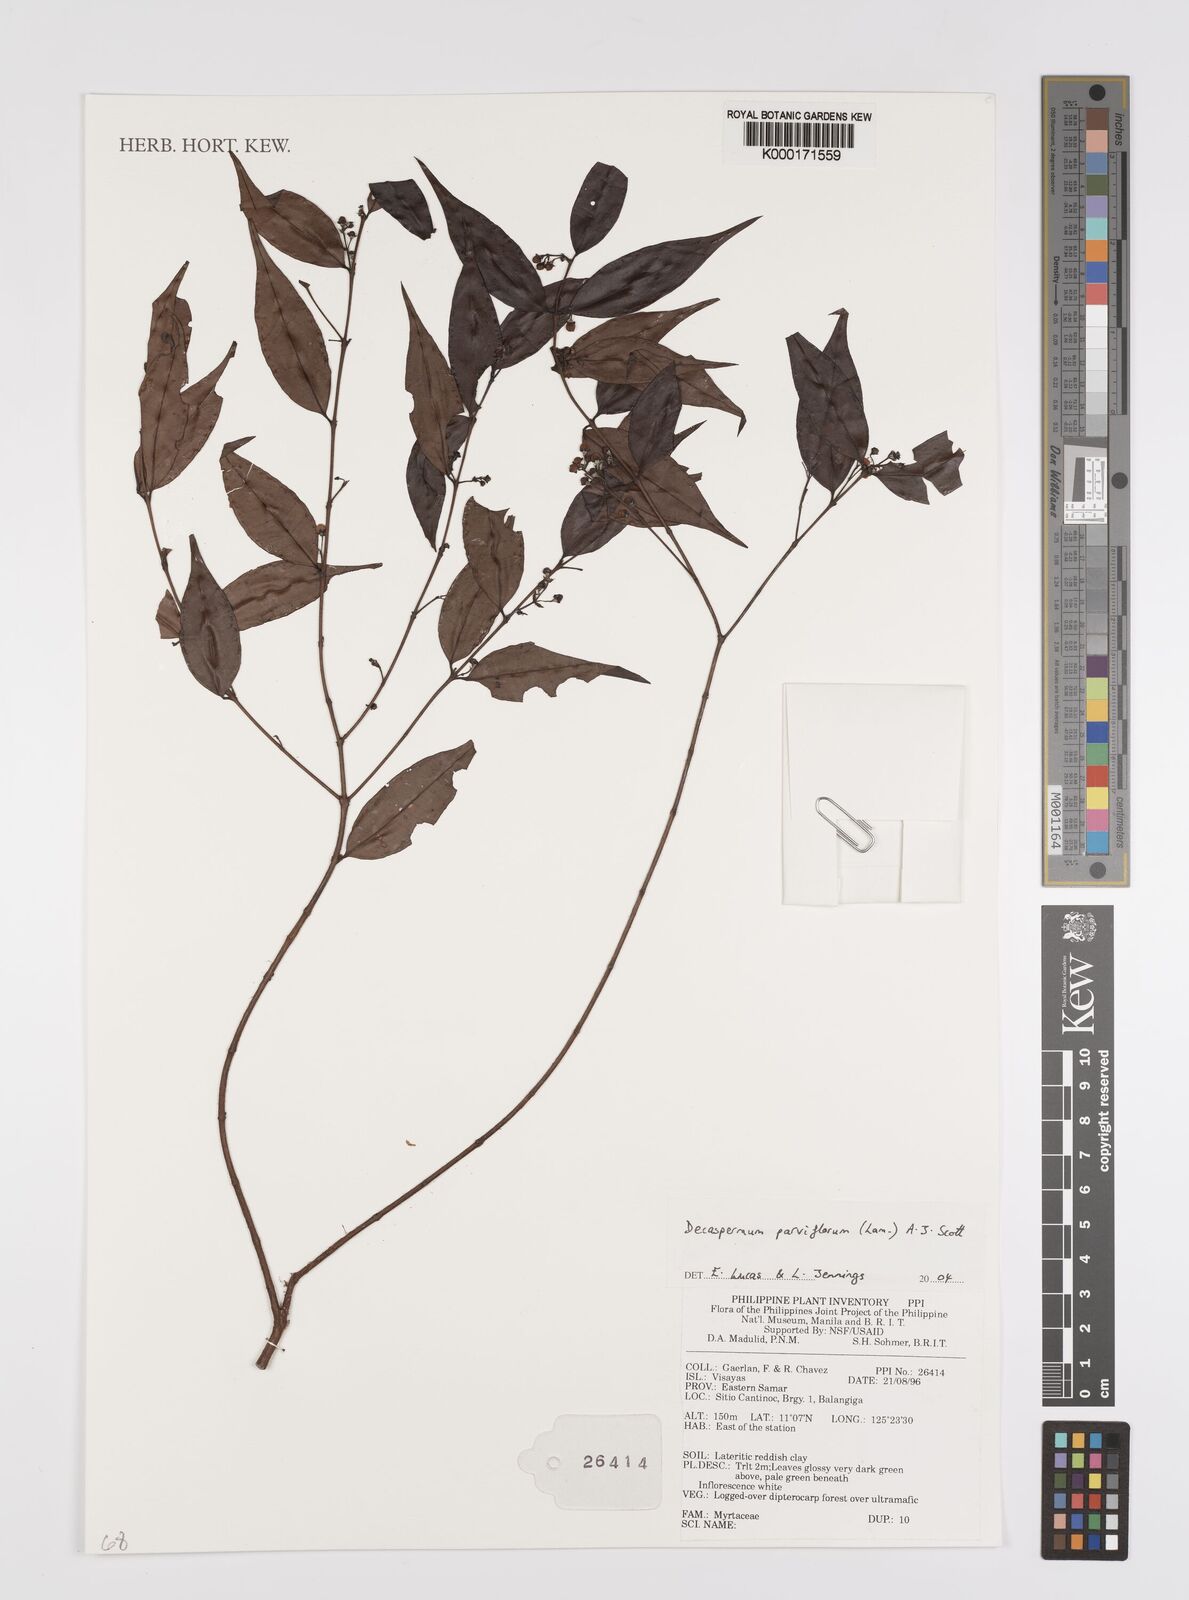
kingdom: Plantae
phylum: Tracheophyta
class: Magnoliopsida
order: Myrtales
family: Myrtaceae
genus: Decaspermum
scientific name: Decaspermum parviflorum
